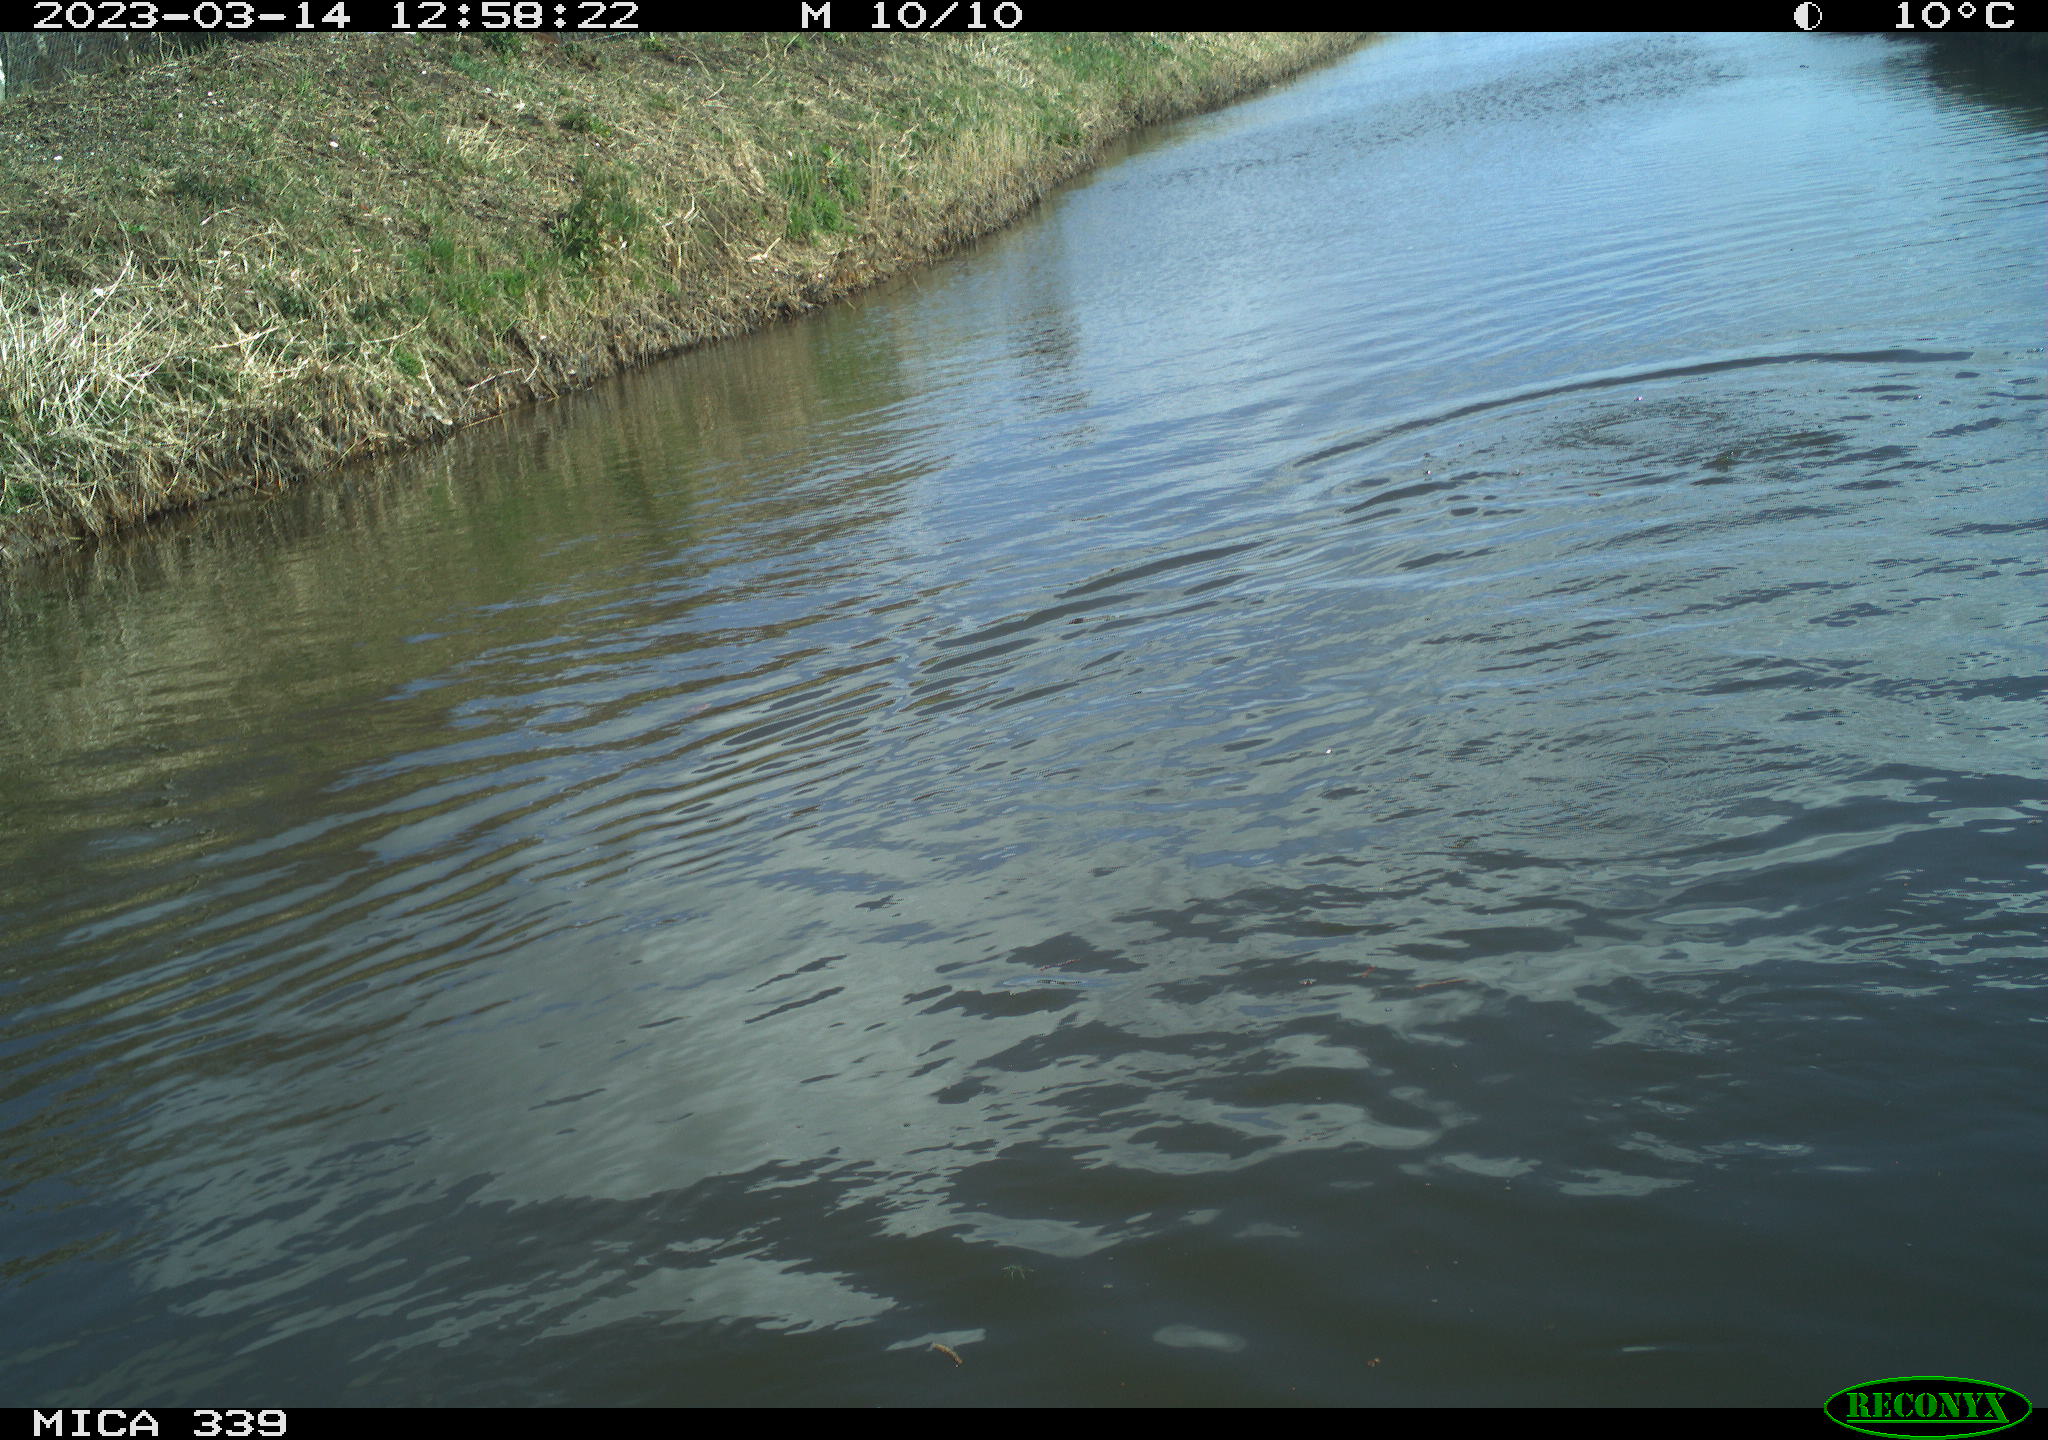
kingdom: Animalia
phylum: Chordata
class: Aves
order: Anseriformes
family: Anatidae
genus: Anas
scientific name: Anas
